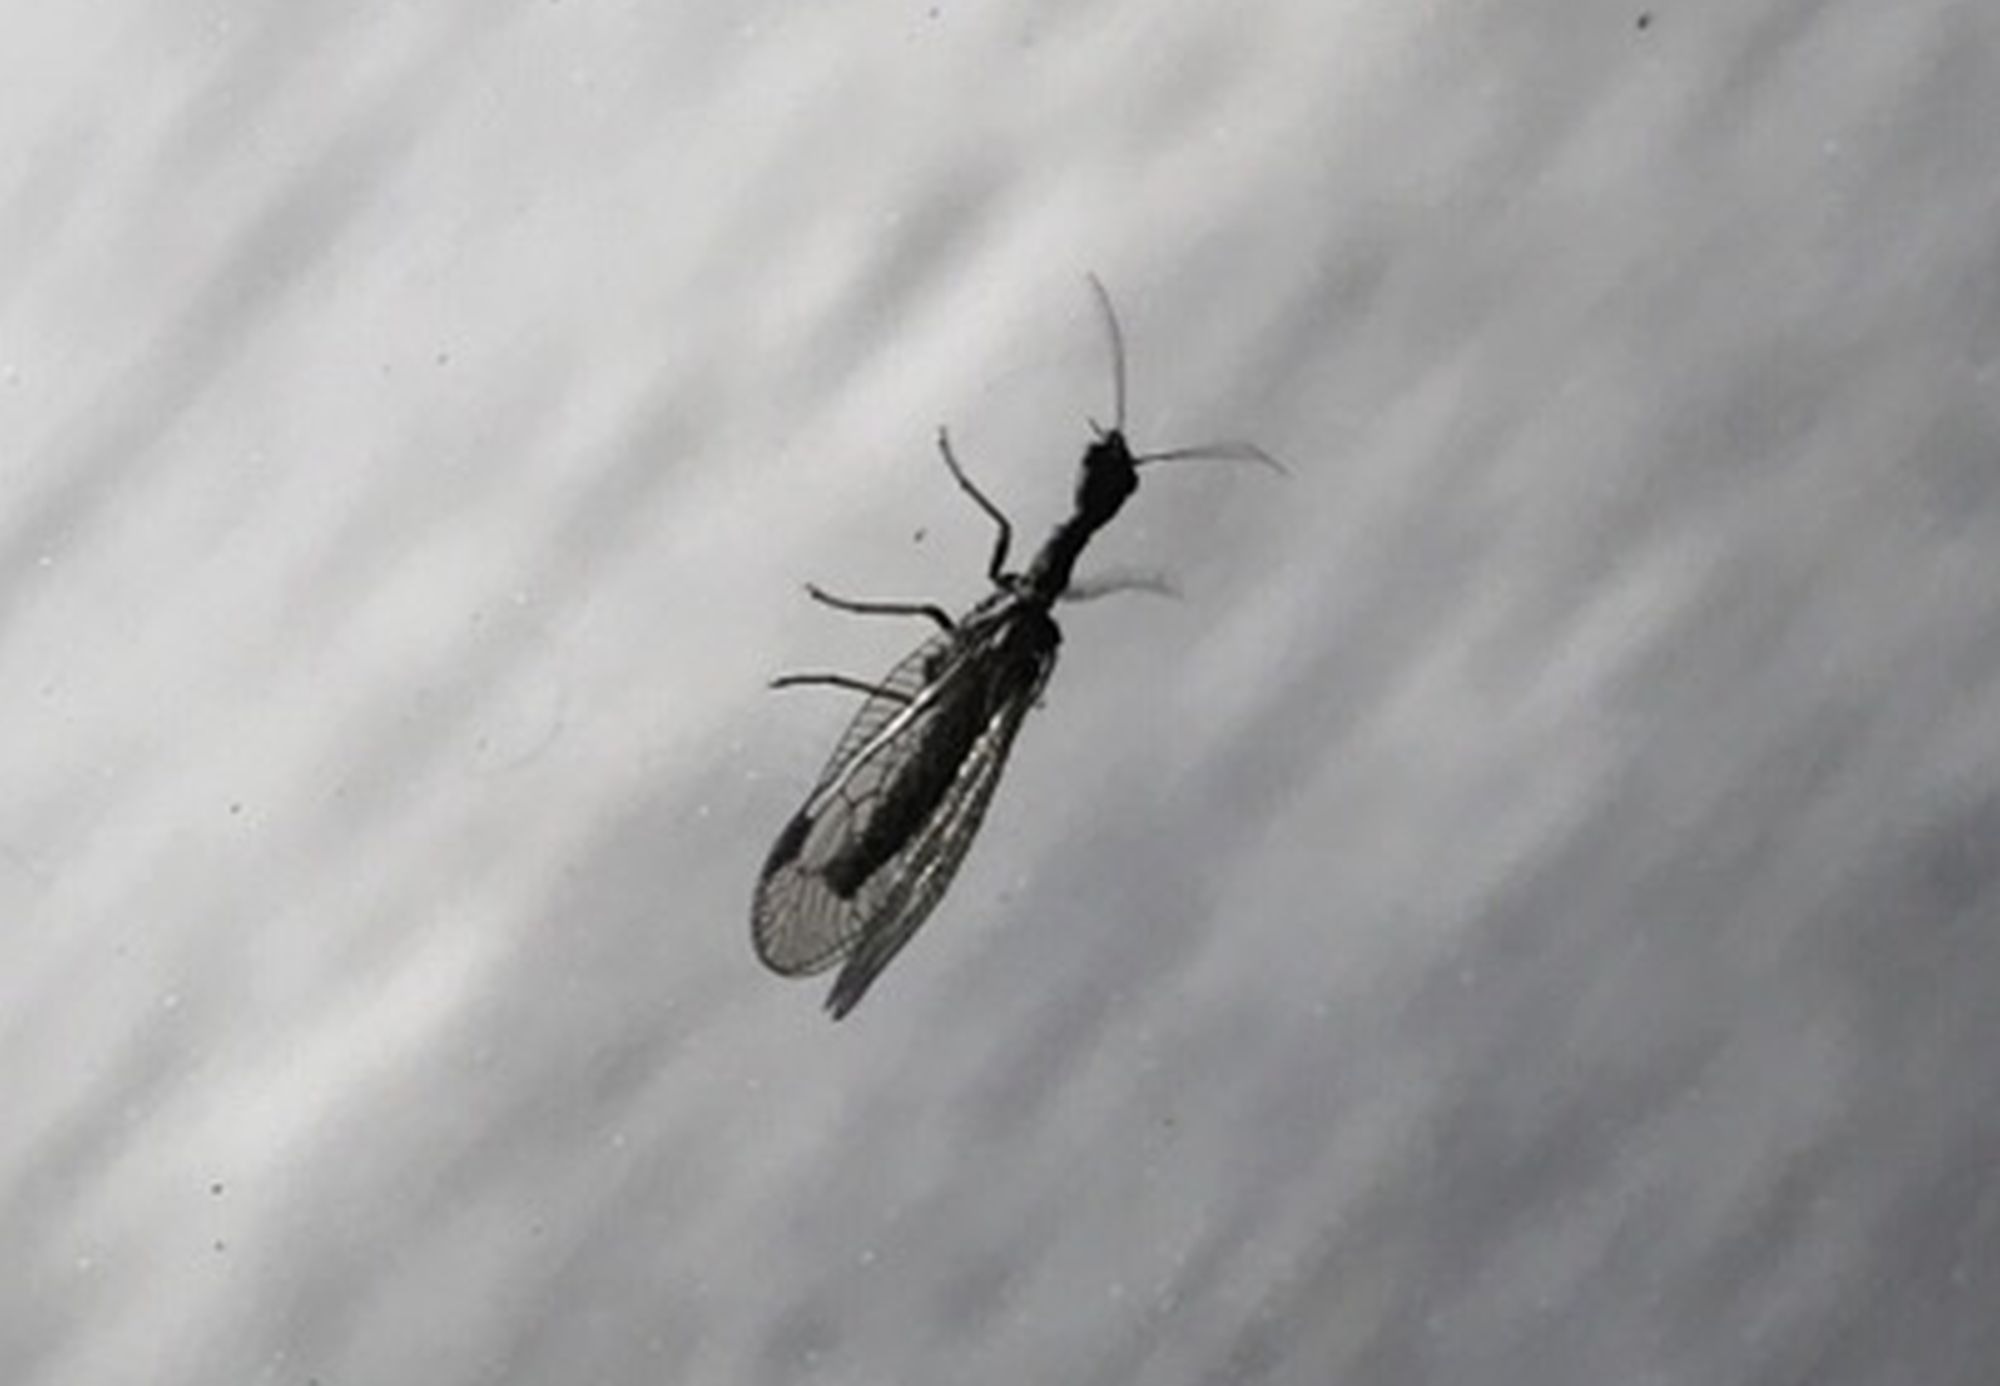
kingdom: Animalia
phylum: Arthropoda
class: Insecta
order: Raphidioptera
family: Raphidiidae
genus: Phaeostigma
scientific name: Phaeostigma notatum
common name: Stor kamelhalsflue
